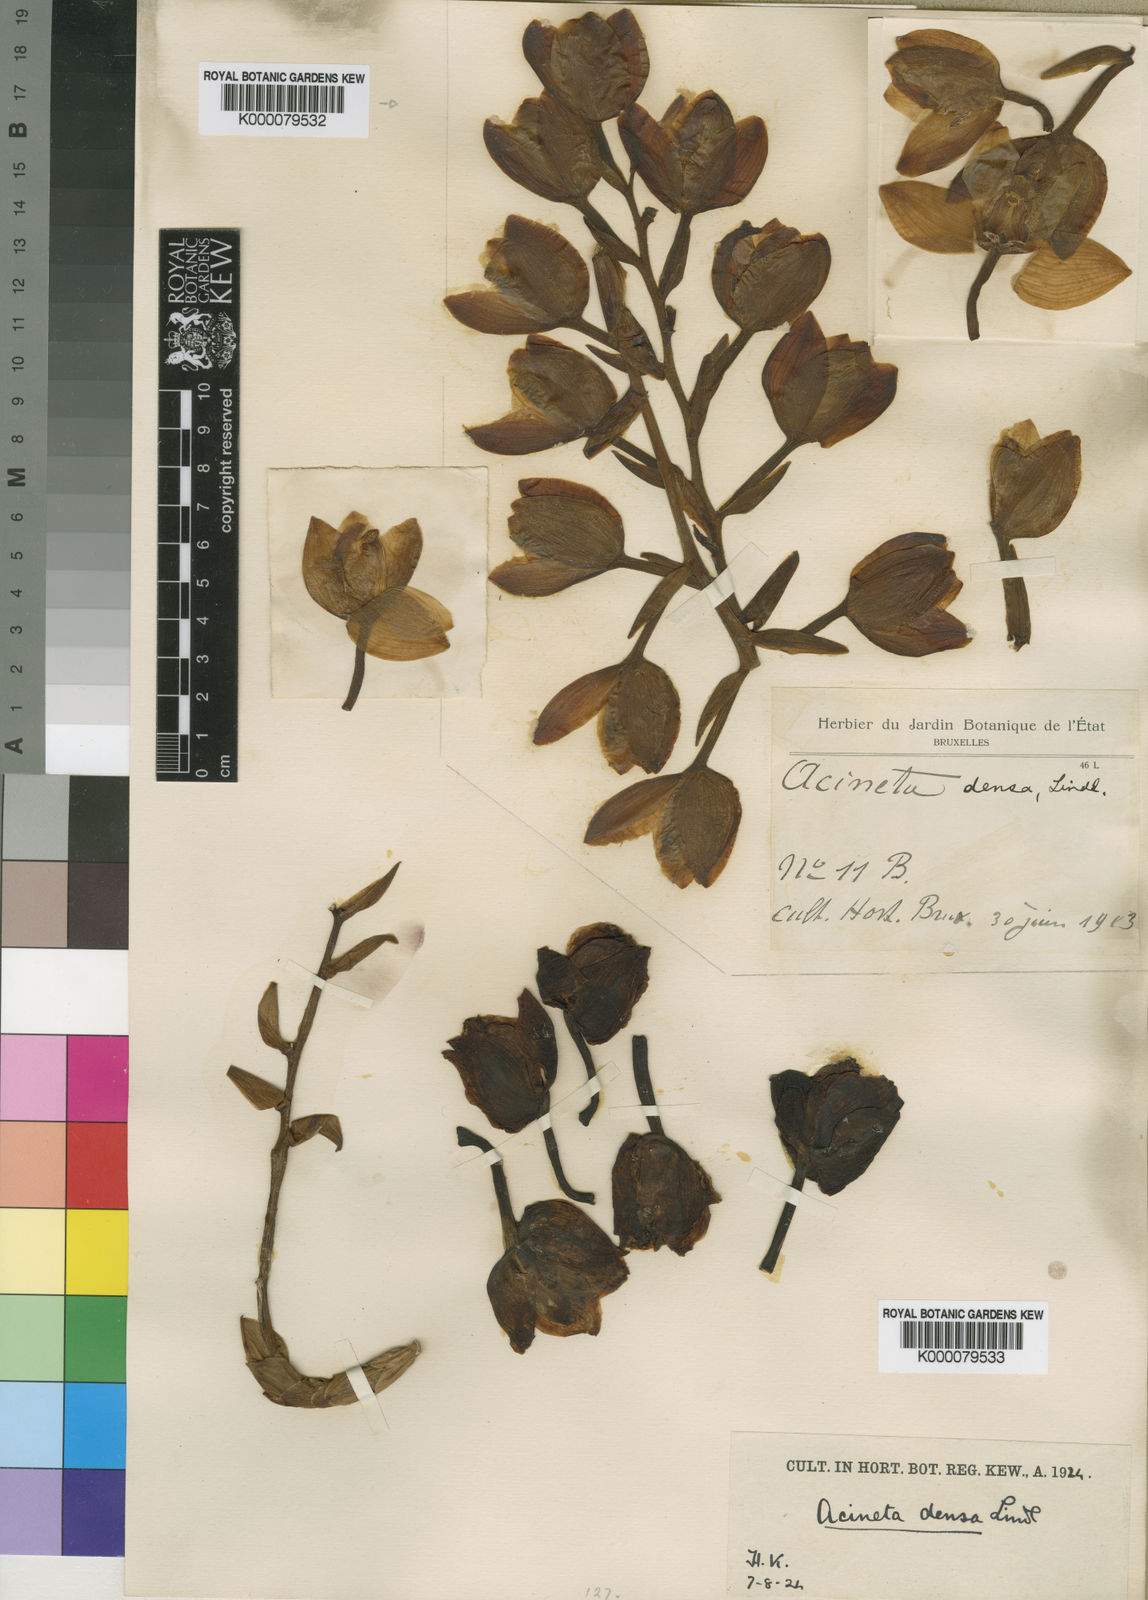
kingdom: Plantae
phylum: Tracheophyta
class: Liliopsida
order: Asparagales
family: Orchidaceae
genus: Acineta
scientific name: Acineta densa
